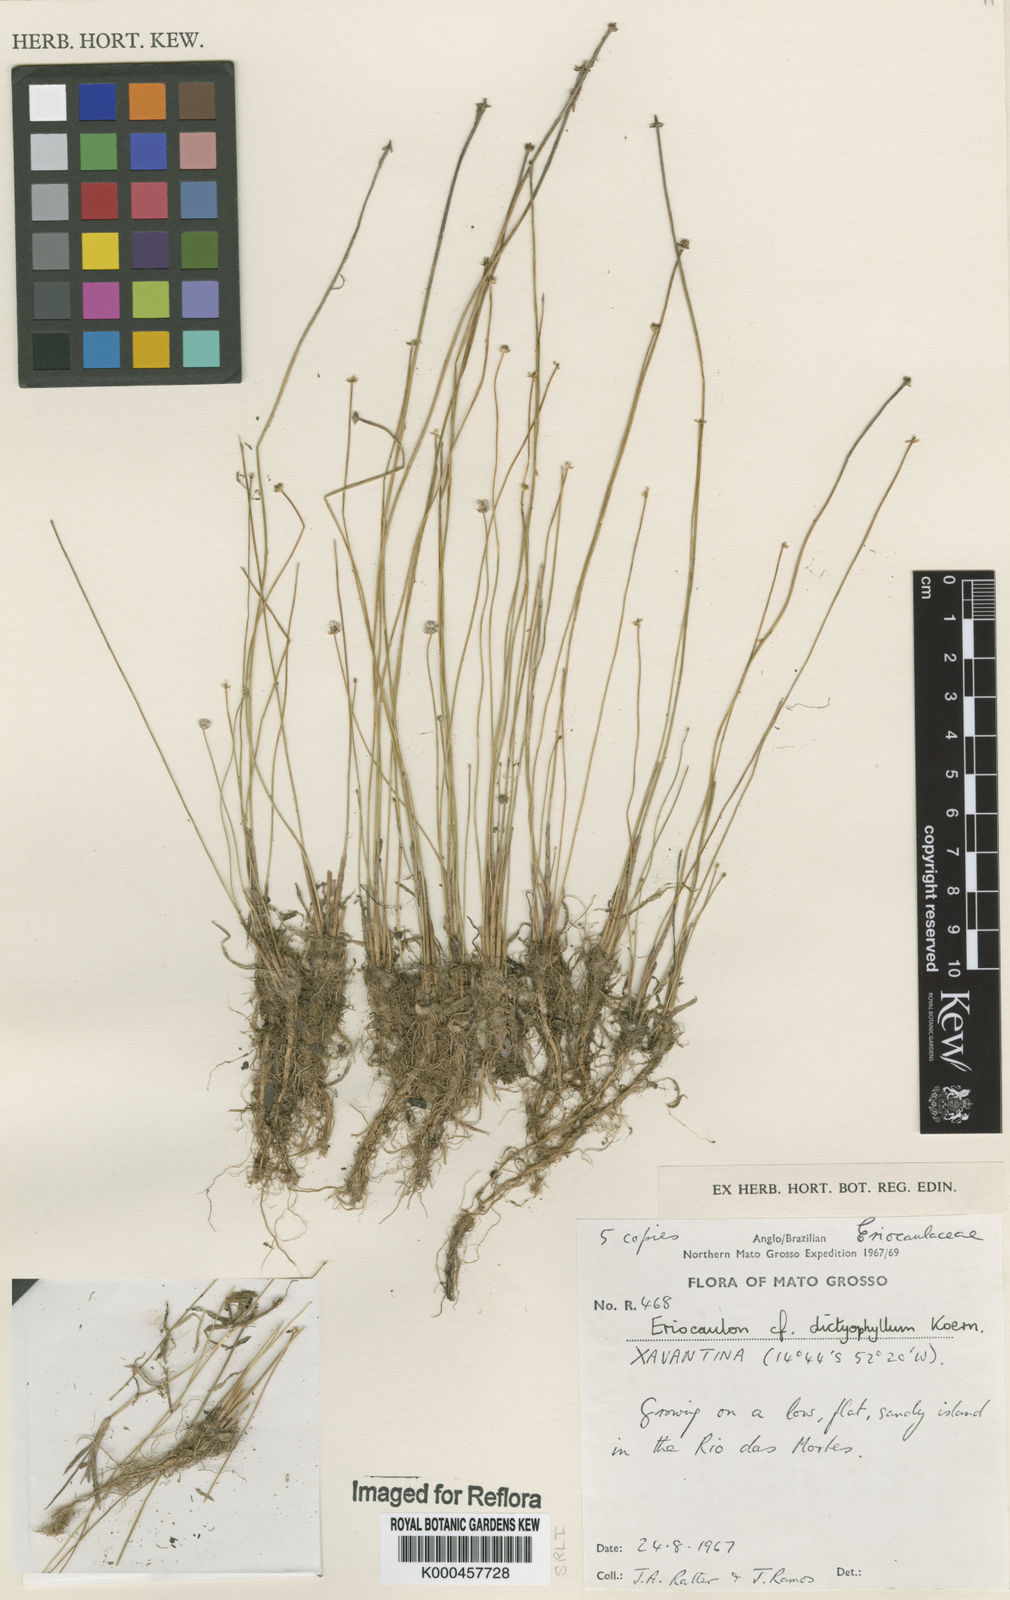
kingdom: Plantae
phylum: Tracheophyta
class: Liliopsida
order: Poales
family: Eriocaulaceae
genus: Eriocaulon
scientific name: Eriocaulon
